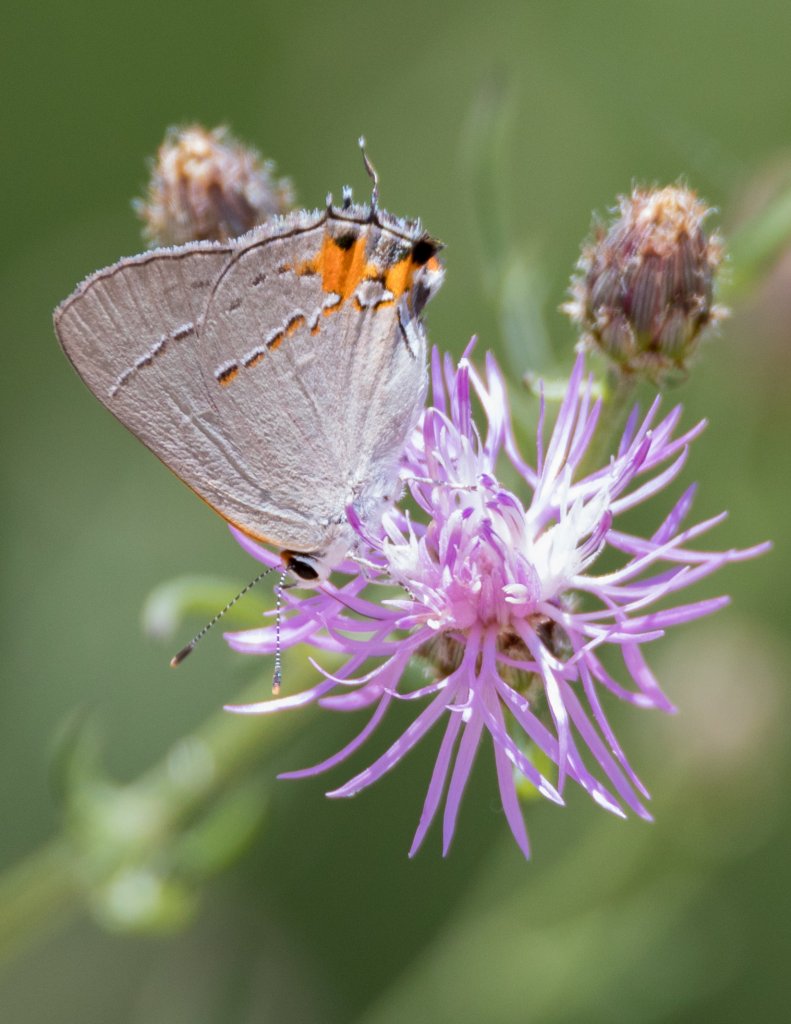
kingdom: Animalia
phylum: Arthropoda
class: Insecta
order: Lepidoptera
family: Lycaenidae
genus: Strymon
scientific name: Strymon melinus
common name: Gray Hairstreak
